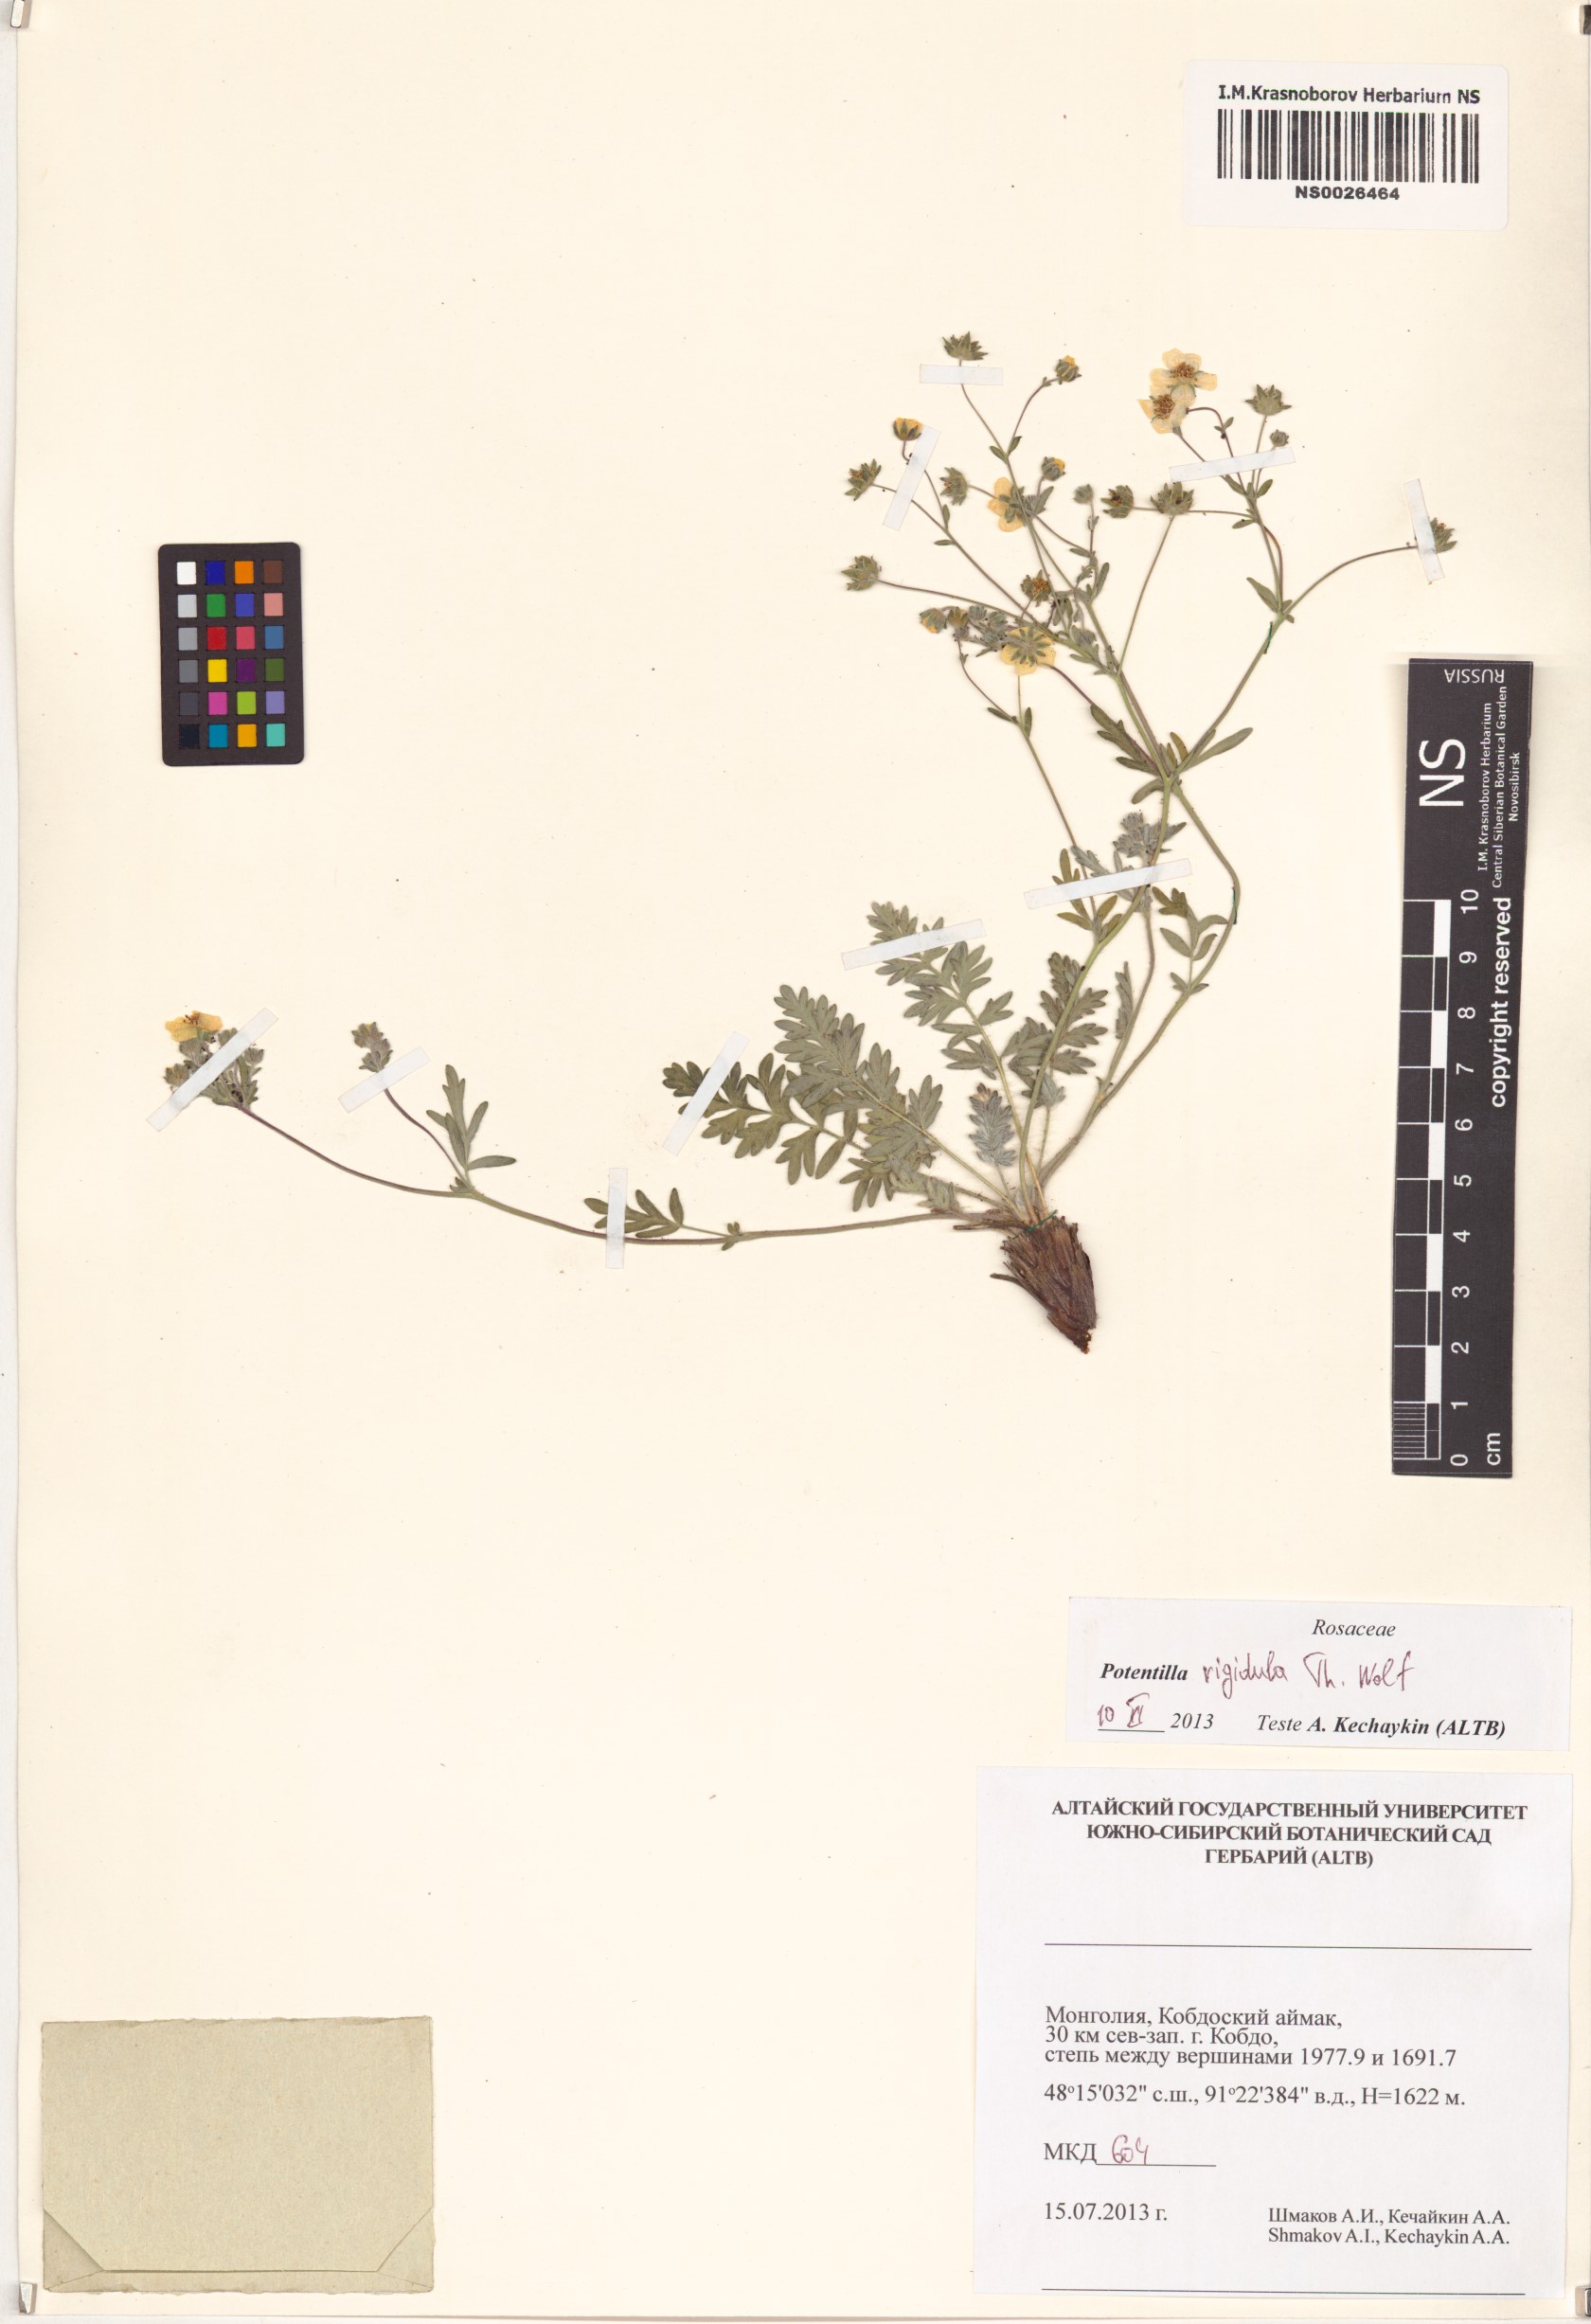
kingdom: Plantae
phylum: Tracheophyta
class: Magnoliopsida
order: Rosales
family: Rosaceae
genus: Potentilla
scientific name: Potentilla rigidula
